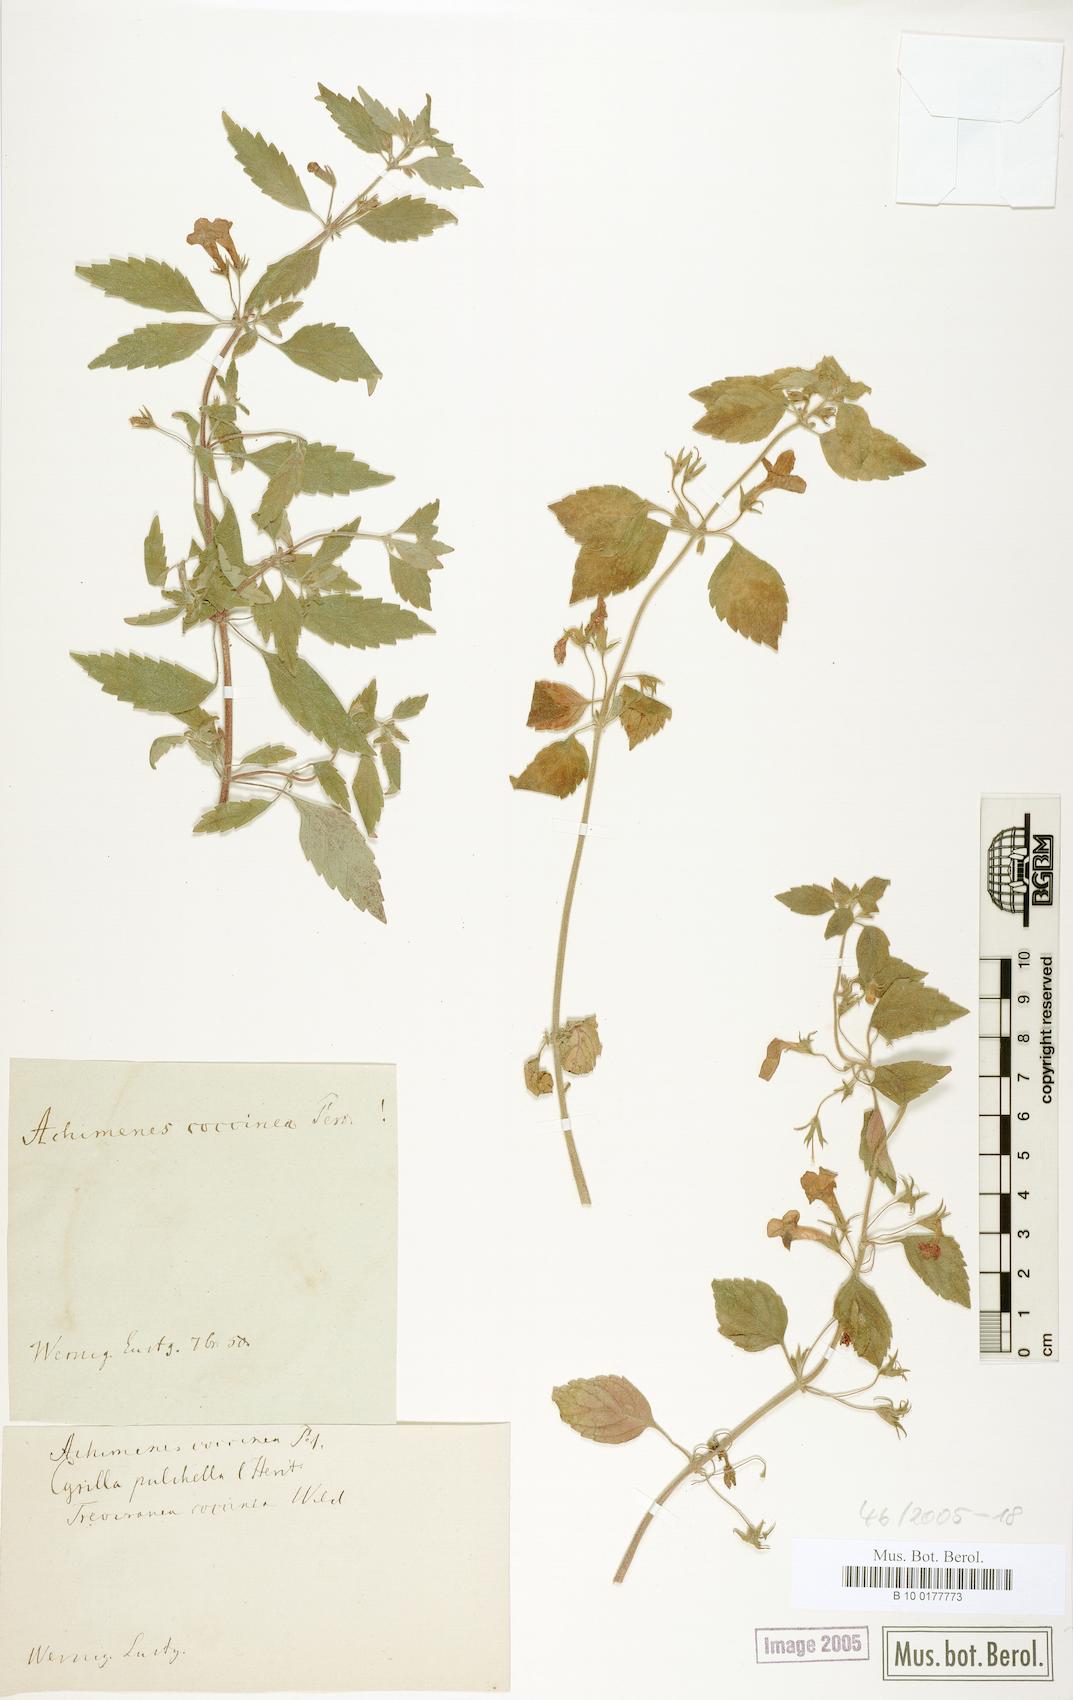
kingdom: Plantae
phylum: Tracheophyta
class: Magnoliopsida
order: Lamiales
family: Gesneriaceae
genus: Achimenes
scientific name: Achimenes erecta
